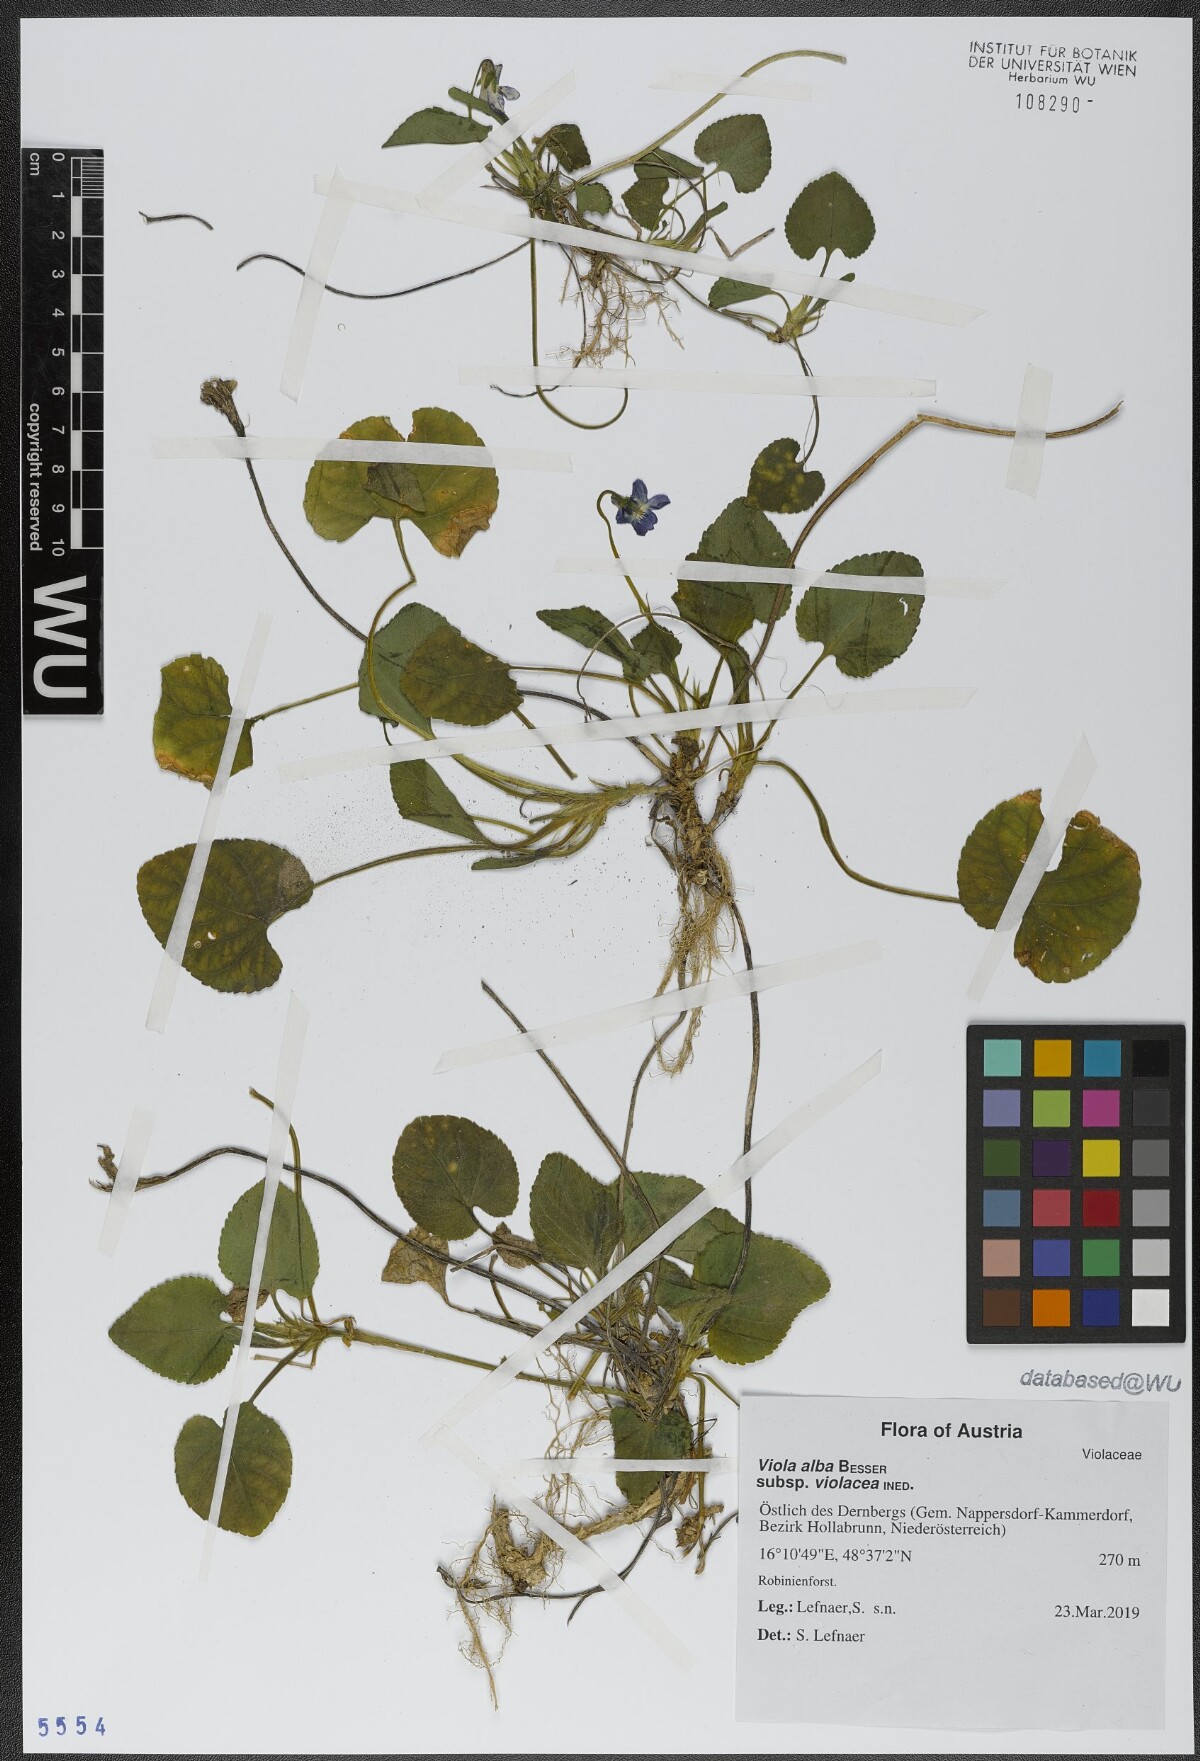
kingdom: Plantae
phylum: Tracheophyta
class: Magnoliopsida
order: Malpighiales
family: Violaceae
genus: Viola
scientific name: Viola alba
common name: White violet
